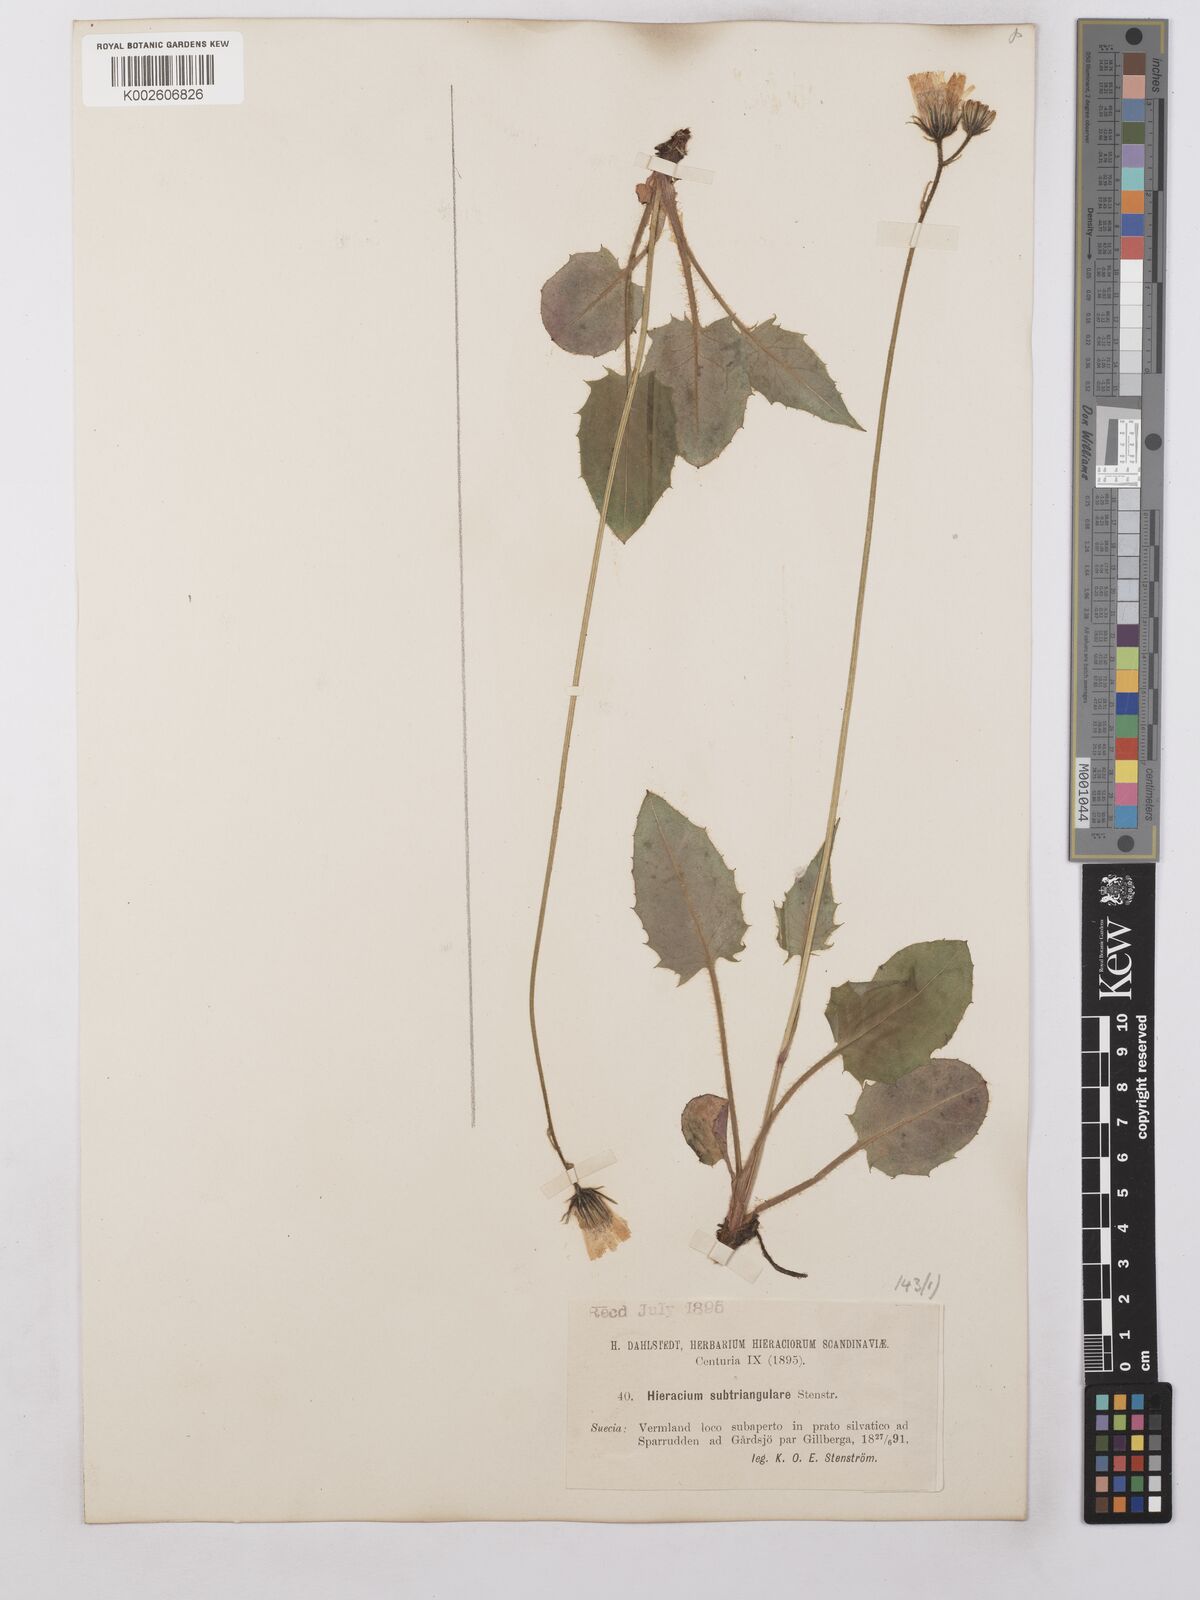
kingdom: Plantae
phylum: Tracheophyta
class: Magnoliopsida
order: Asterales
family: Asteraceae
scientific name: Asteraceae
